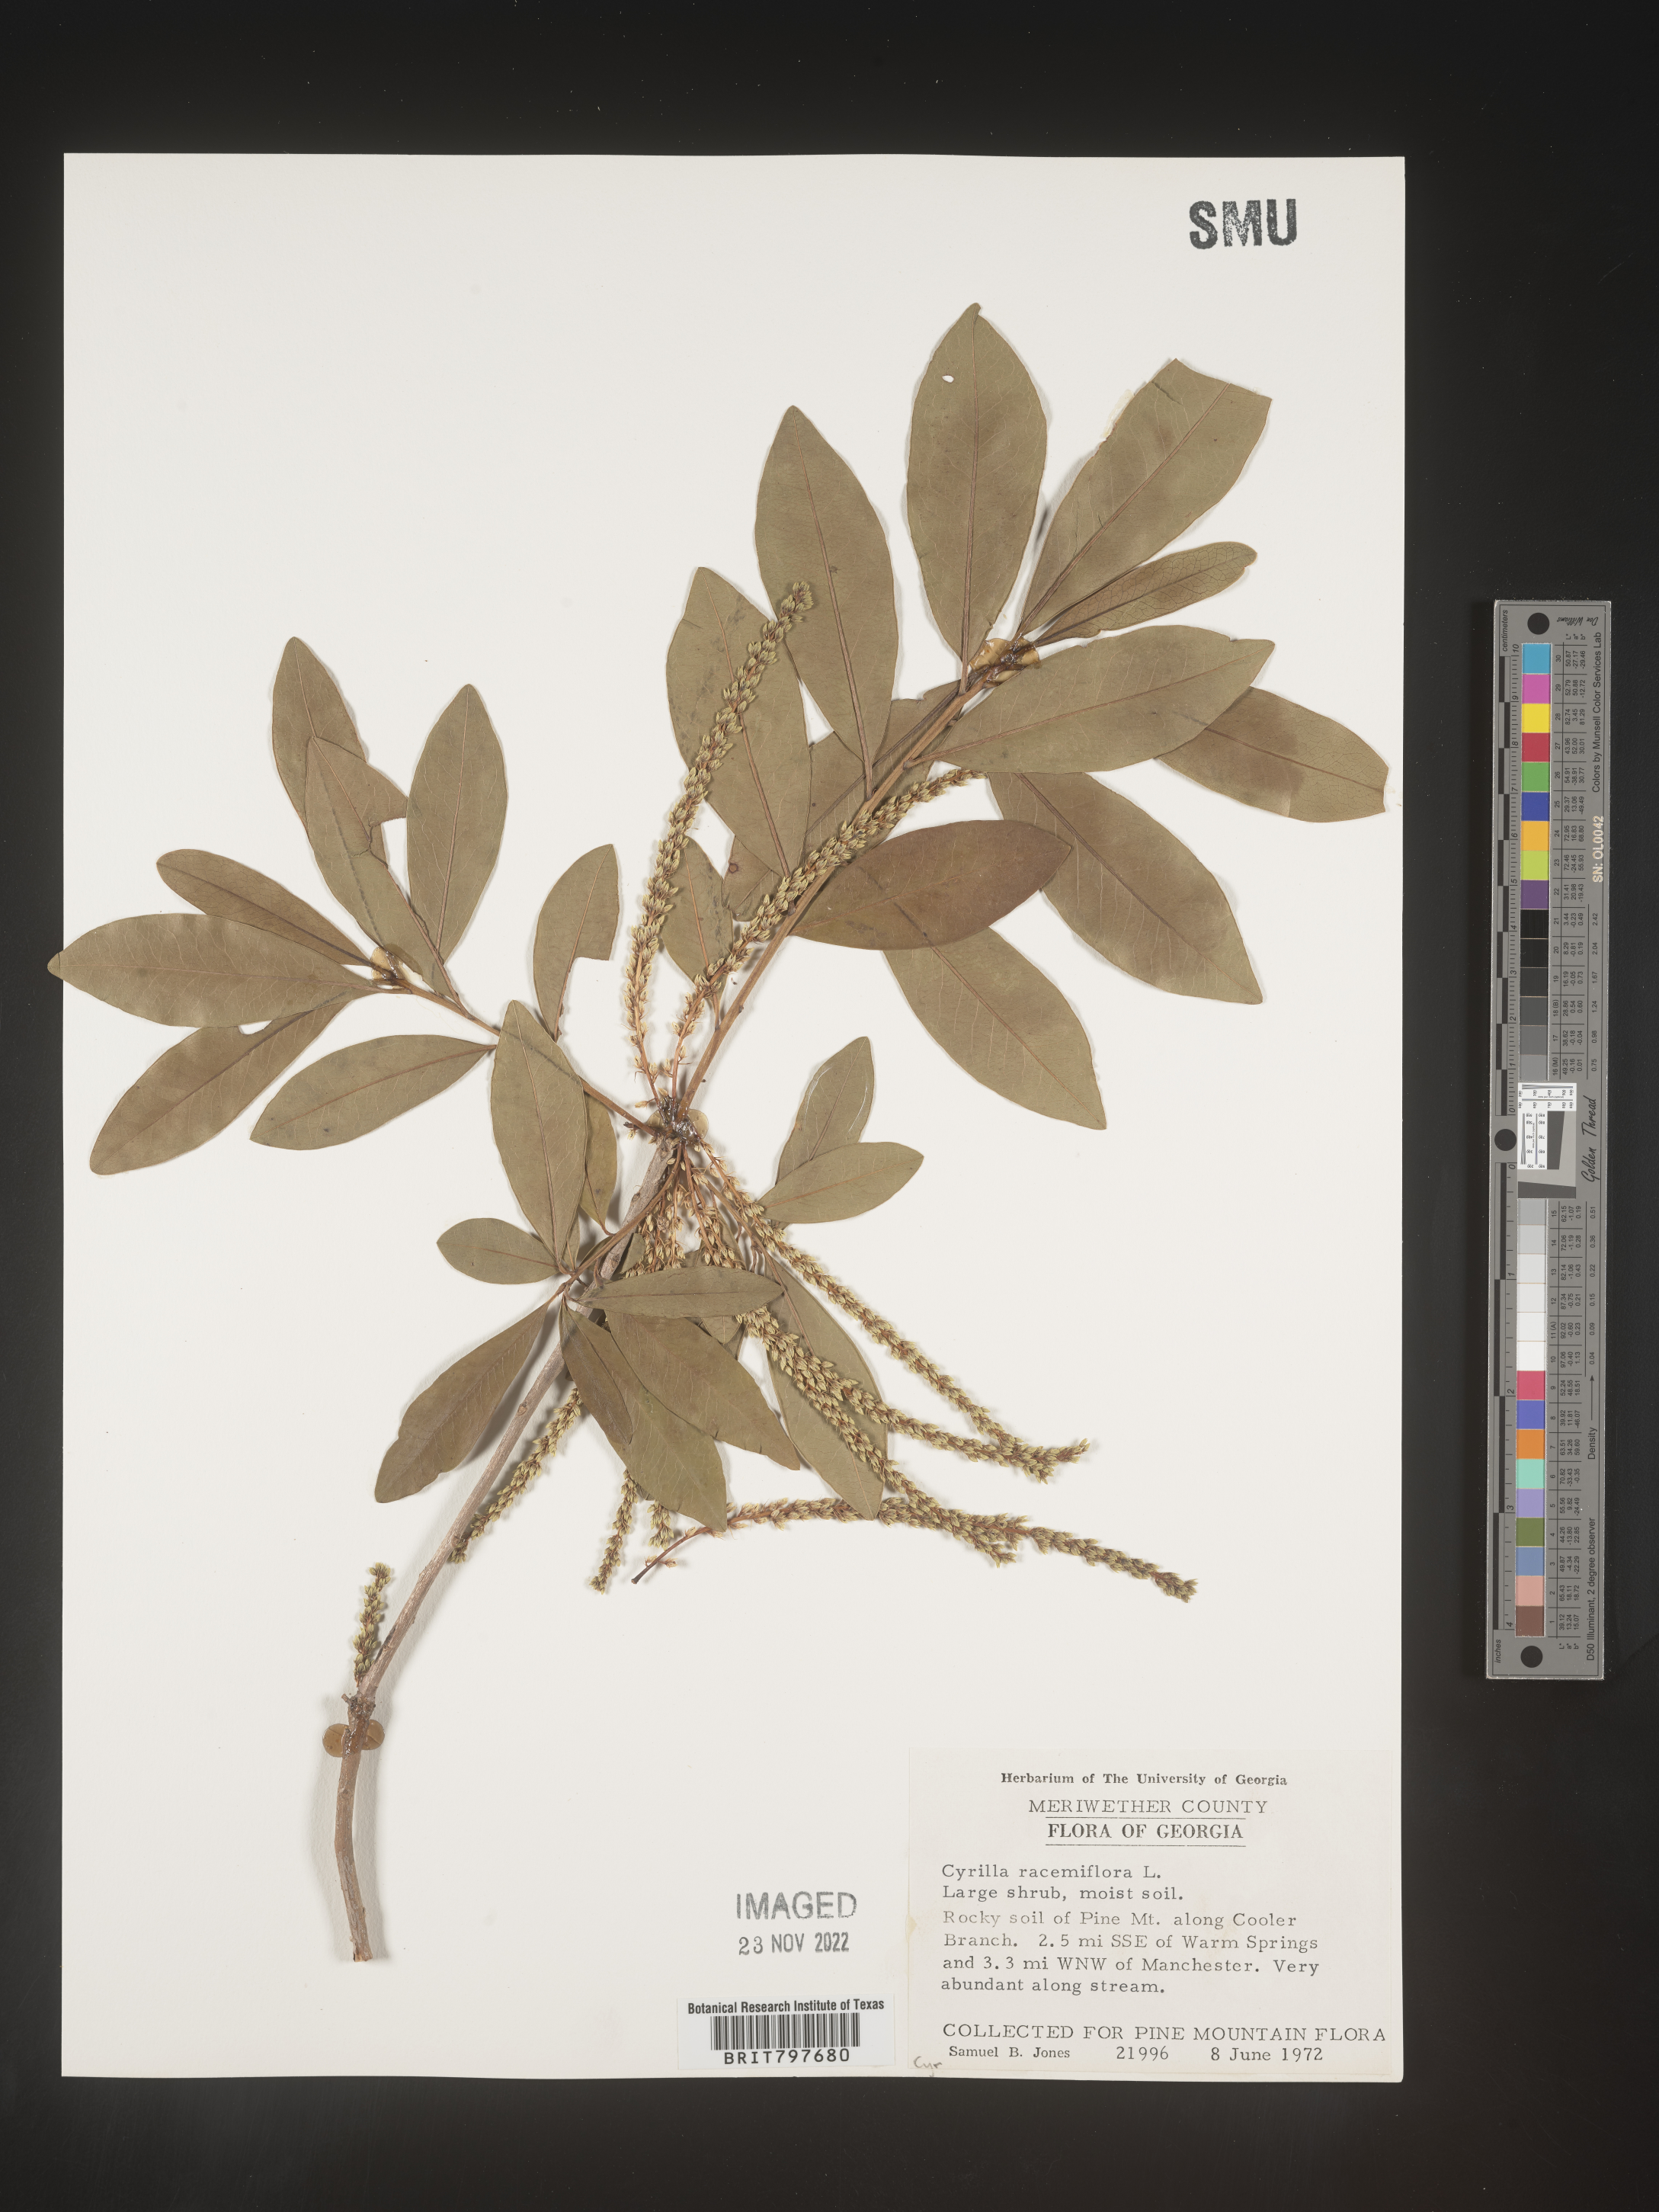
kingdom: Plantae
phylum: Tracheophyta
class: Magnoliopsida
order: Ericales
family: Cyrillaceae
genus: Cyrilla
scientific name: Cyrilla racemiflora
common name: Black titi
